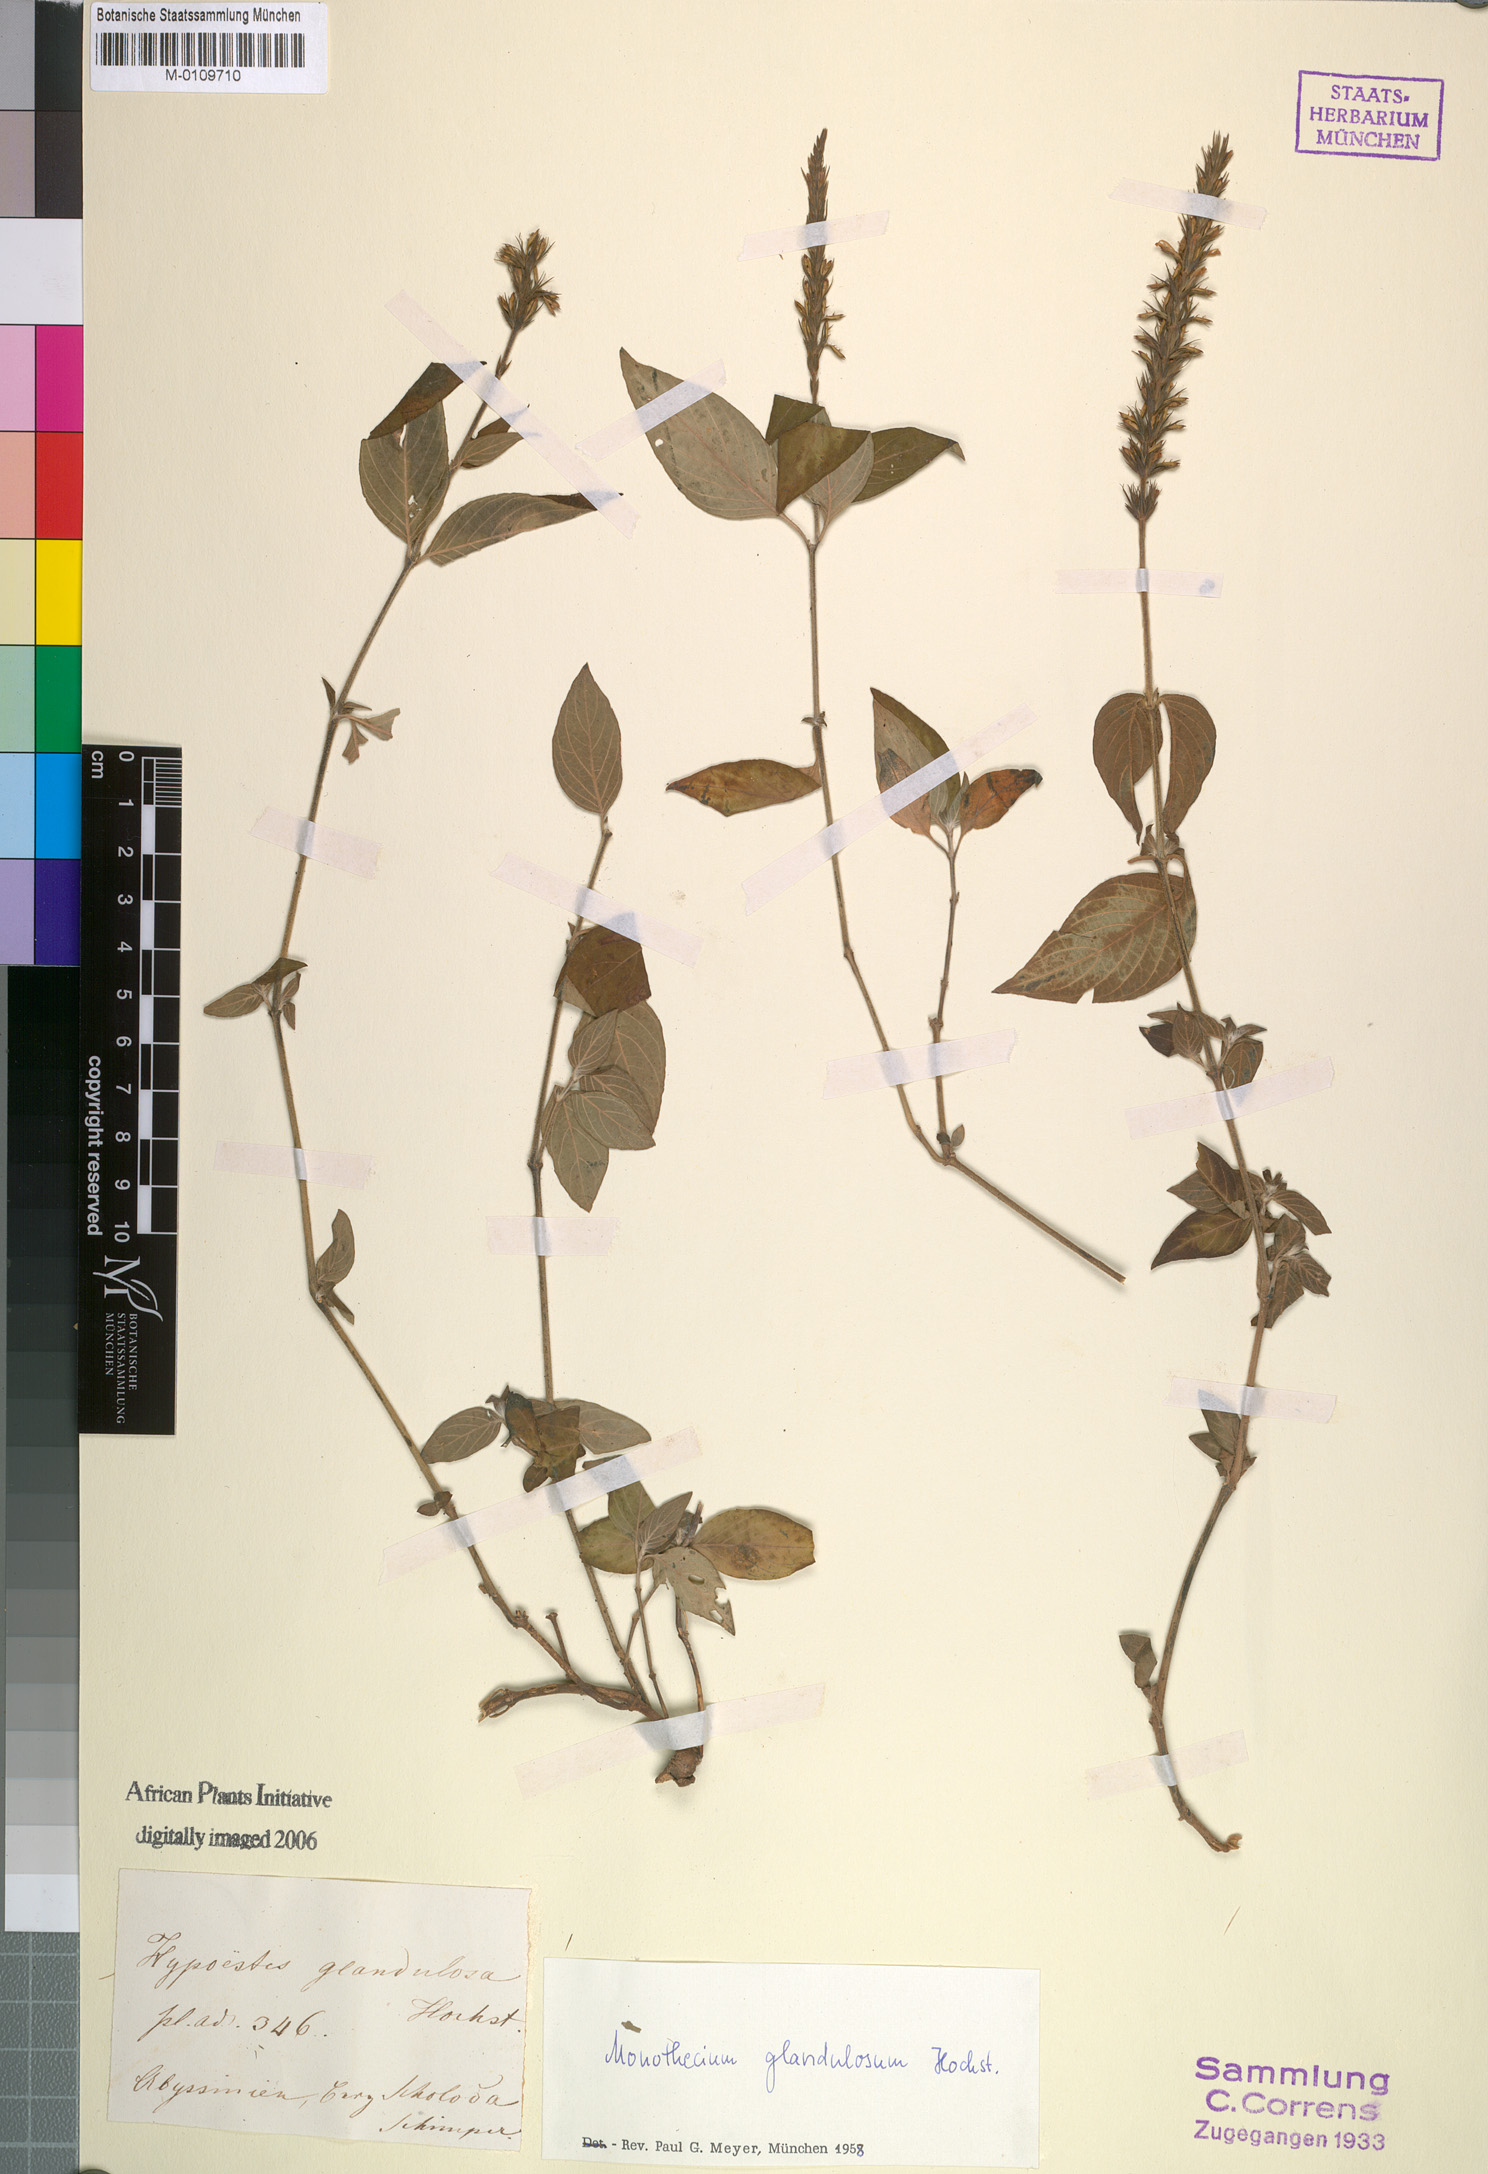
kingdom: Plantae
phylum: Tracheophyta
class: Magnoliopsida
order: Lamiales
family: Acanthaceae
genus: Monothecium
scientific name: Monothecium glandulosum
